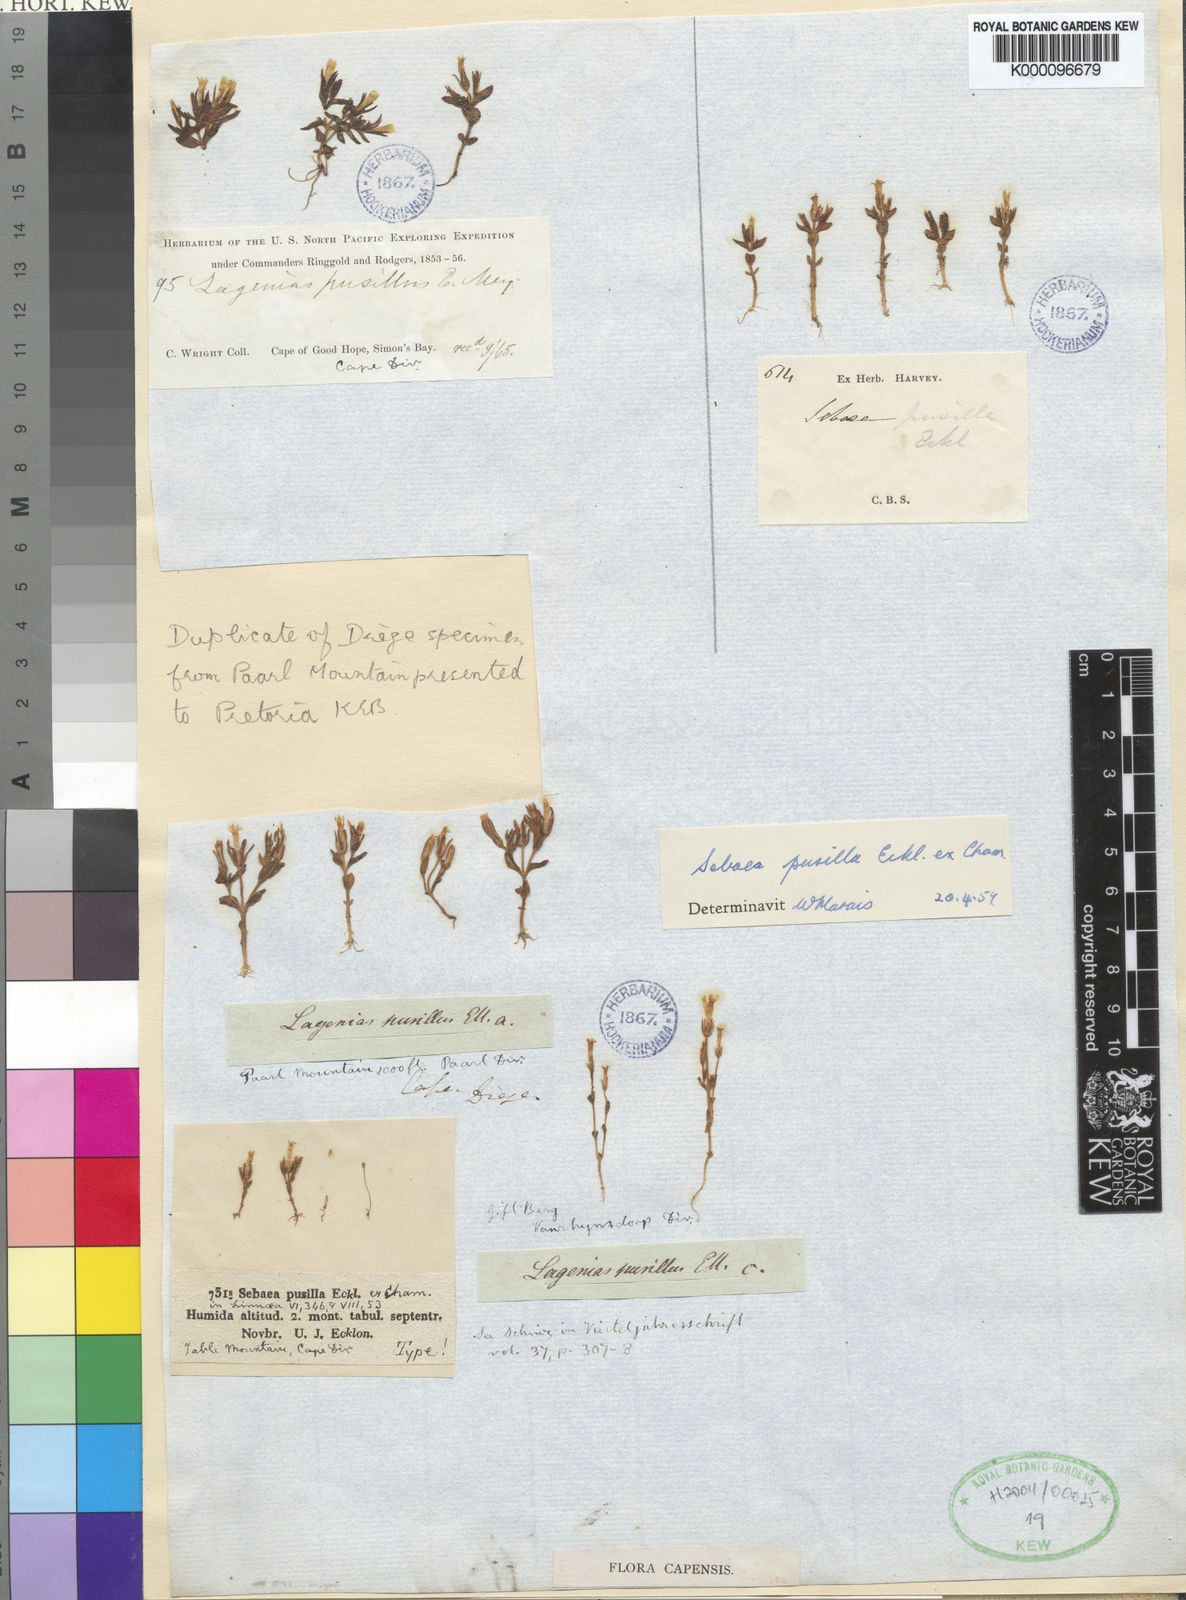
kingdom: Plantae
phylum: Tracheophyta
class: Magnoliopsida
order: Gentianales
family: Gentianaceae
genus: Lagenias
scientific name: Lagenias
